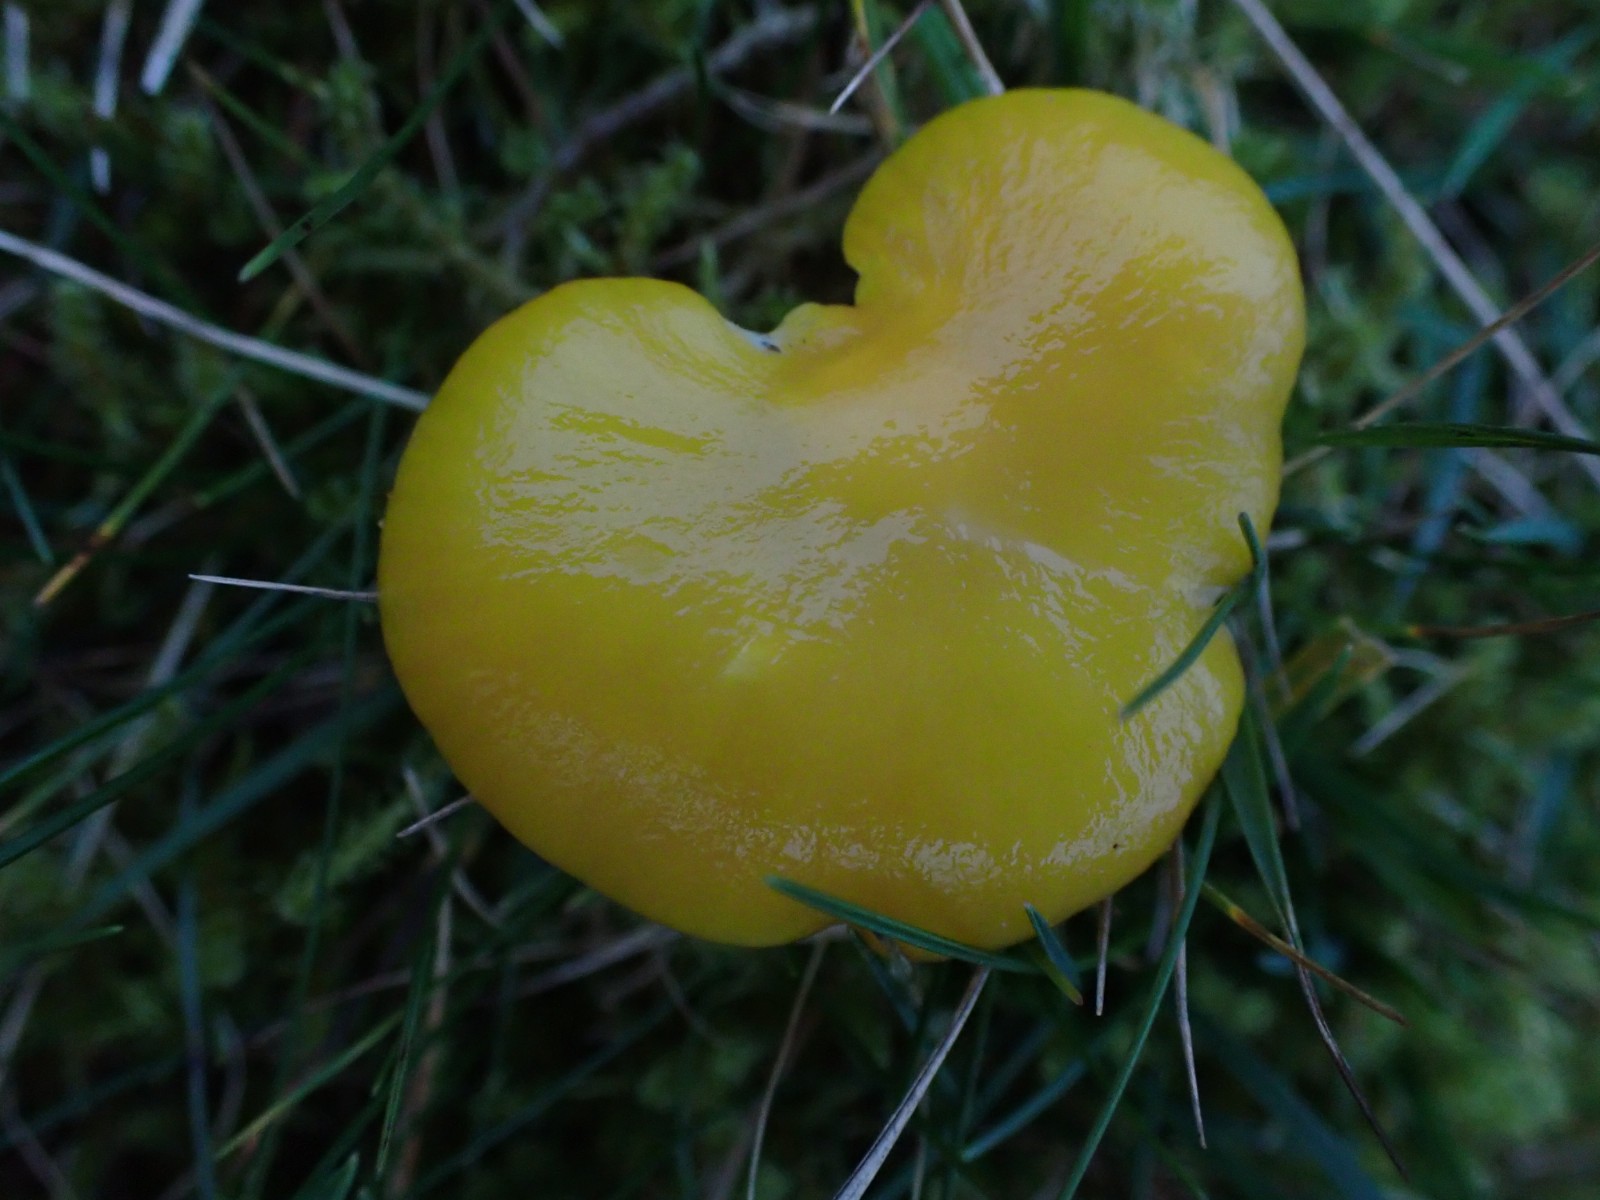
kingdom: Fungi
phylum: Basidiomycota
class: Agaricomycetes
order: Agaricales
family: Hygrophoraceae
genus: Hygrocybe
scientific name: Hygrocybe chlorophana
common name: gul vokshat
